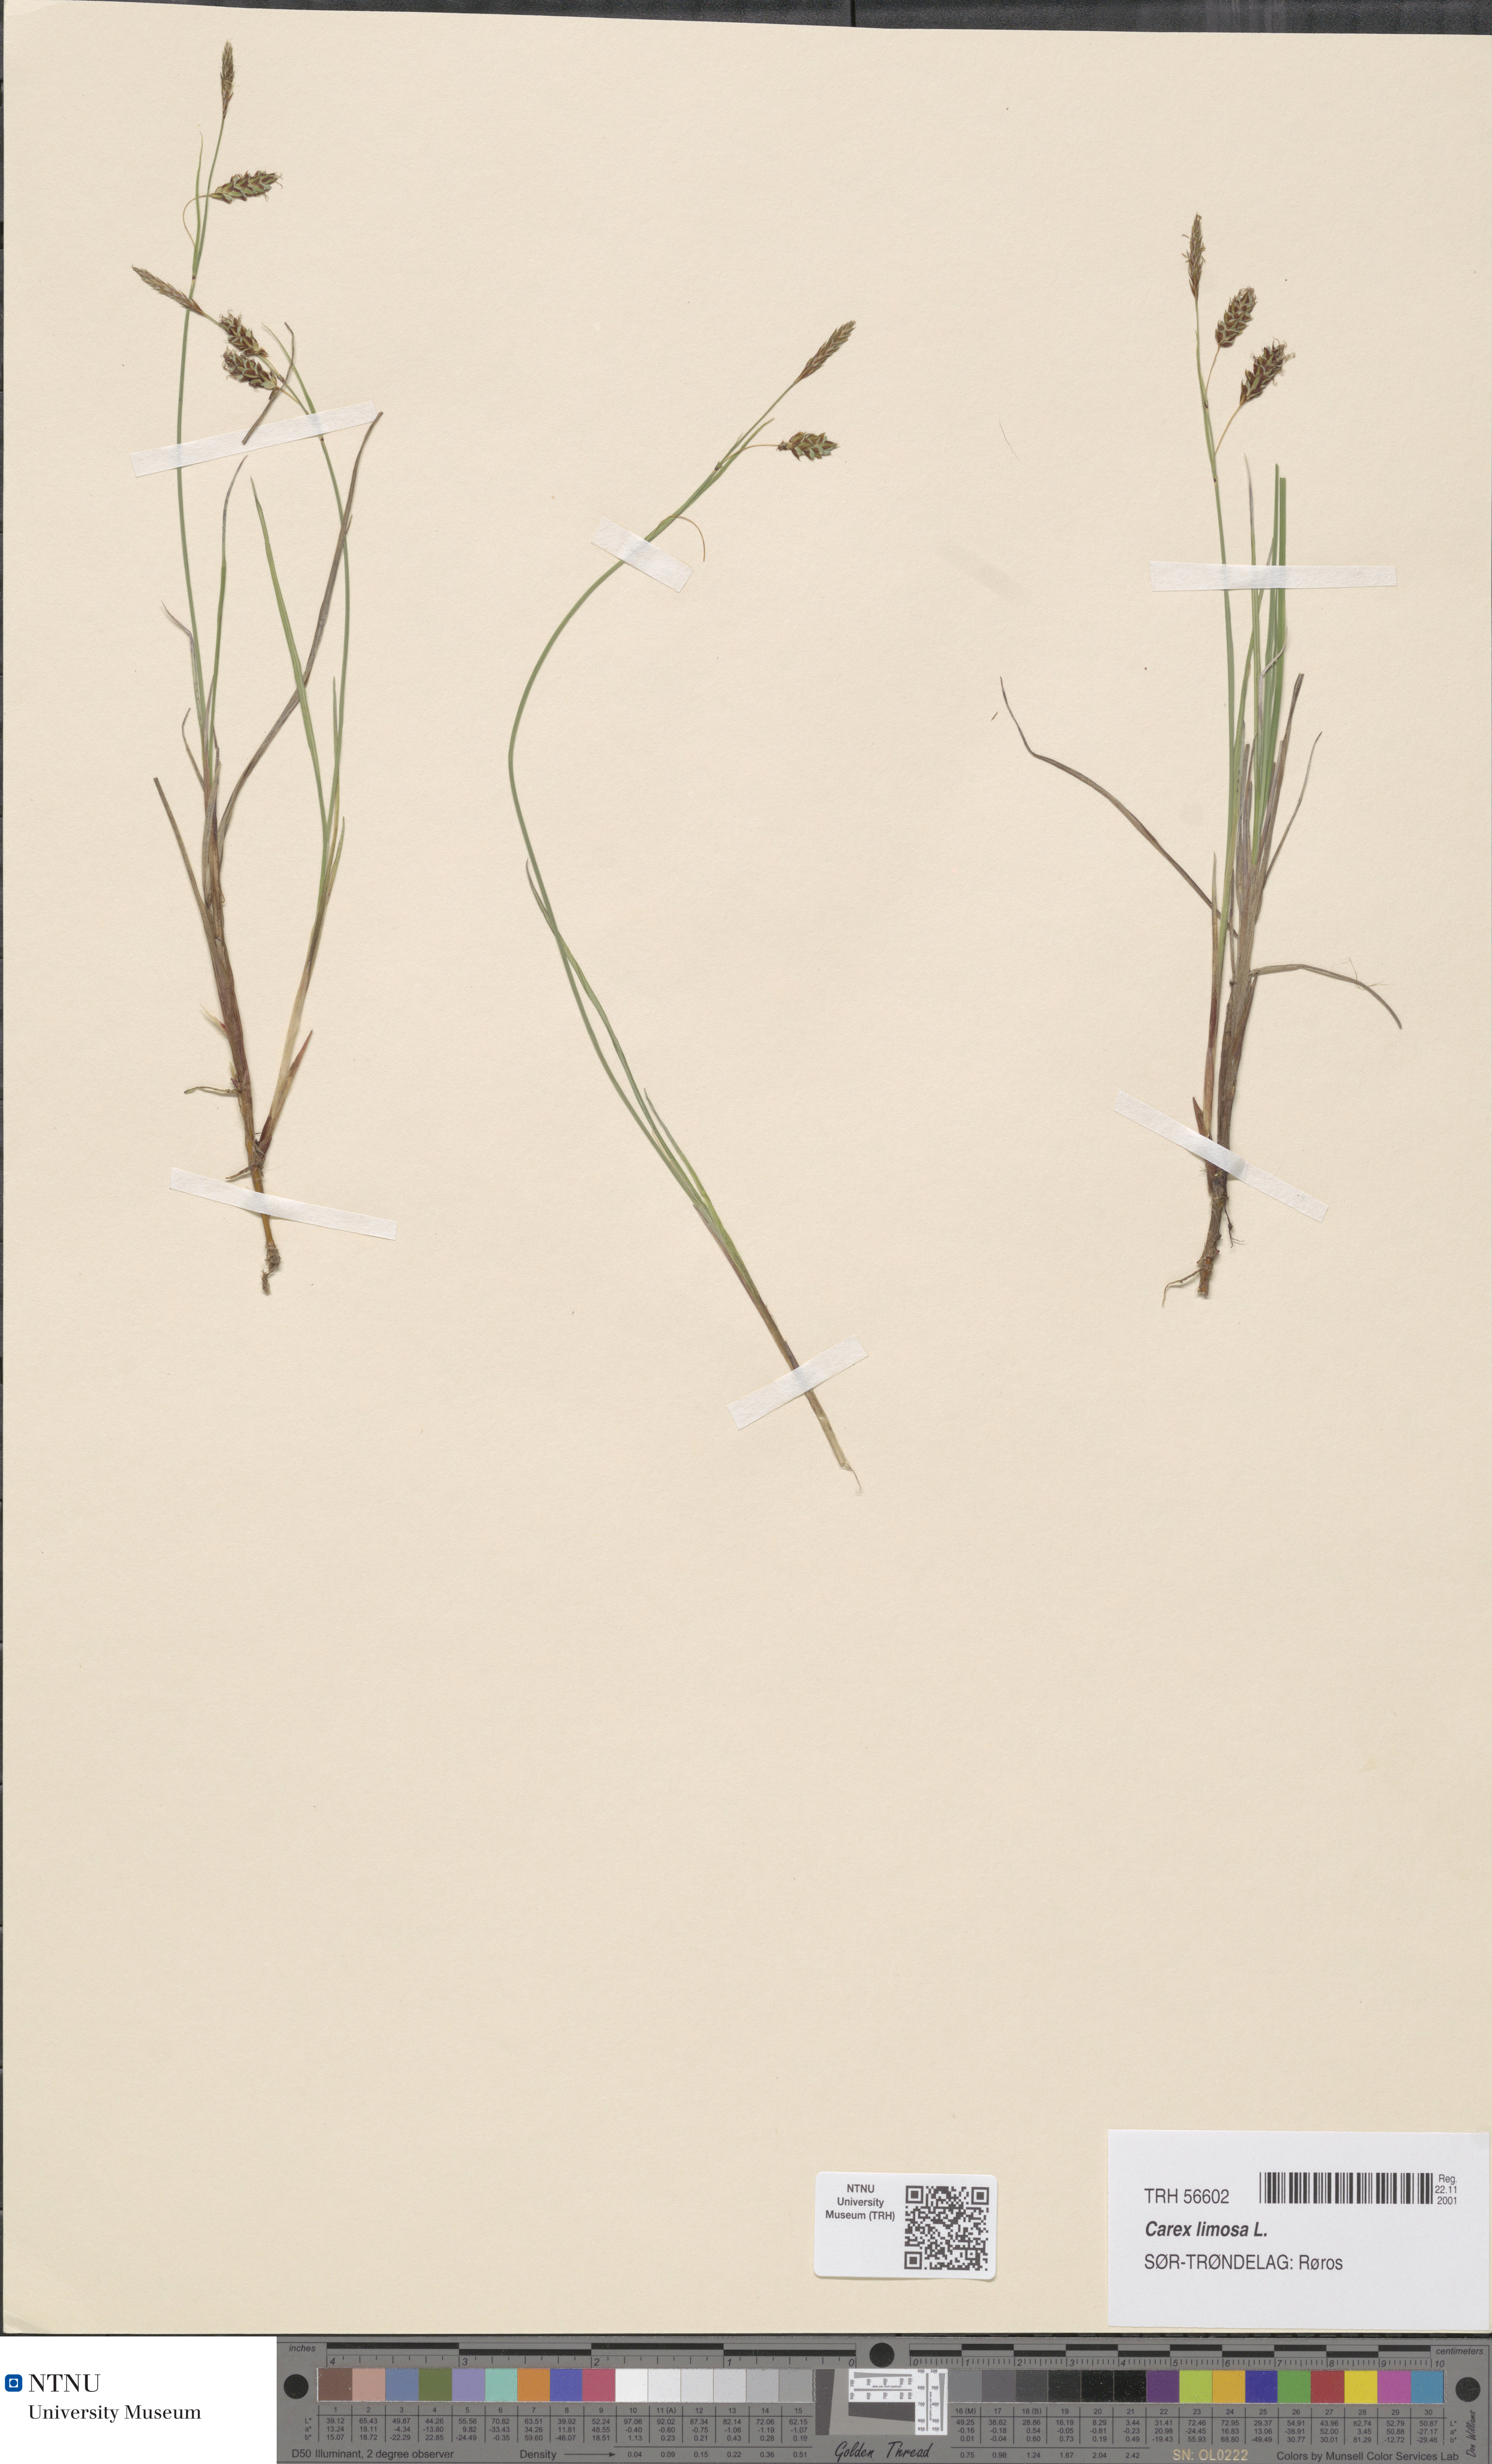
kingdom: Plantae
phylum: Tracheophyta
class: Liliopsida
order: Poales
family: Cyperaceae
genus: Carex
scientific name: Carex limosa
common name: Bog sedge
